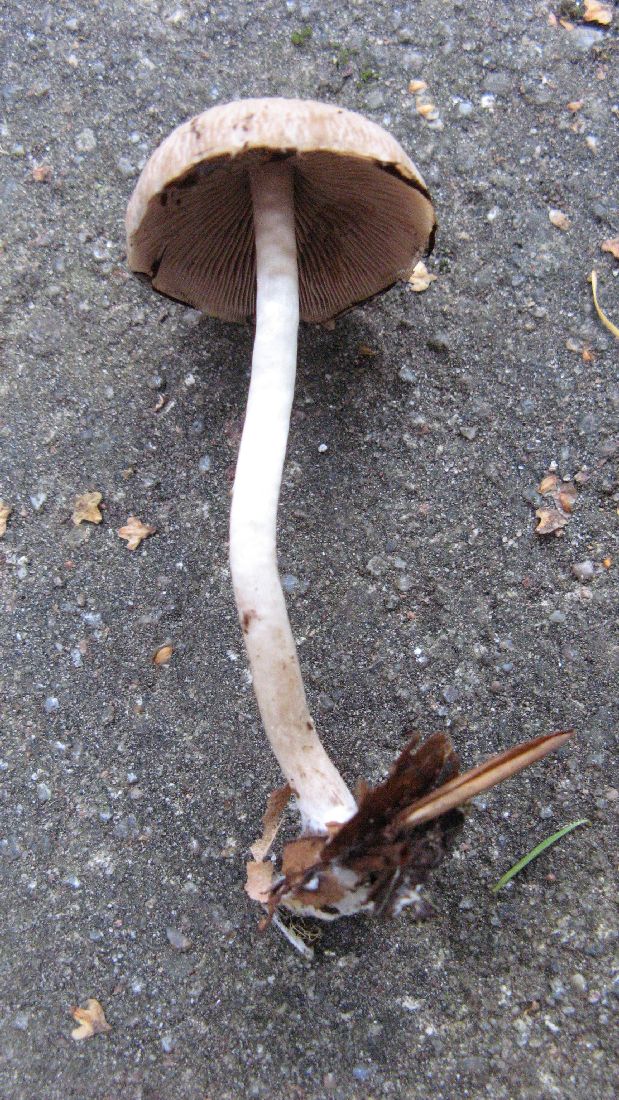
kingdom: Fungi
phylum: Basidiomycota
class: Agaricomycetes
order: Agaricales
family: Psathyrellaceae
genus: Candolleomyces
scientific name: Candolleomyces candolleanus
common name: Candolles mørkhat
